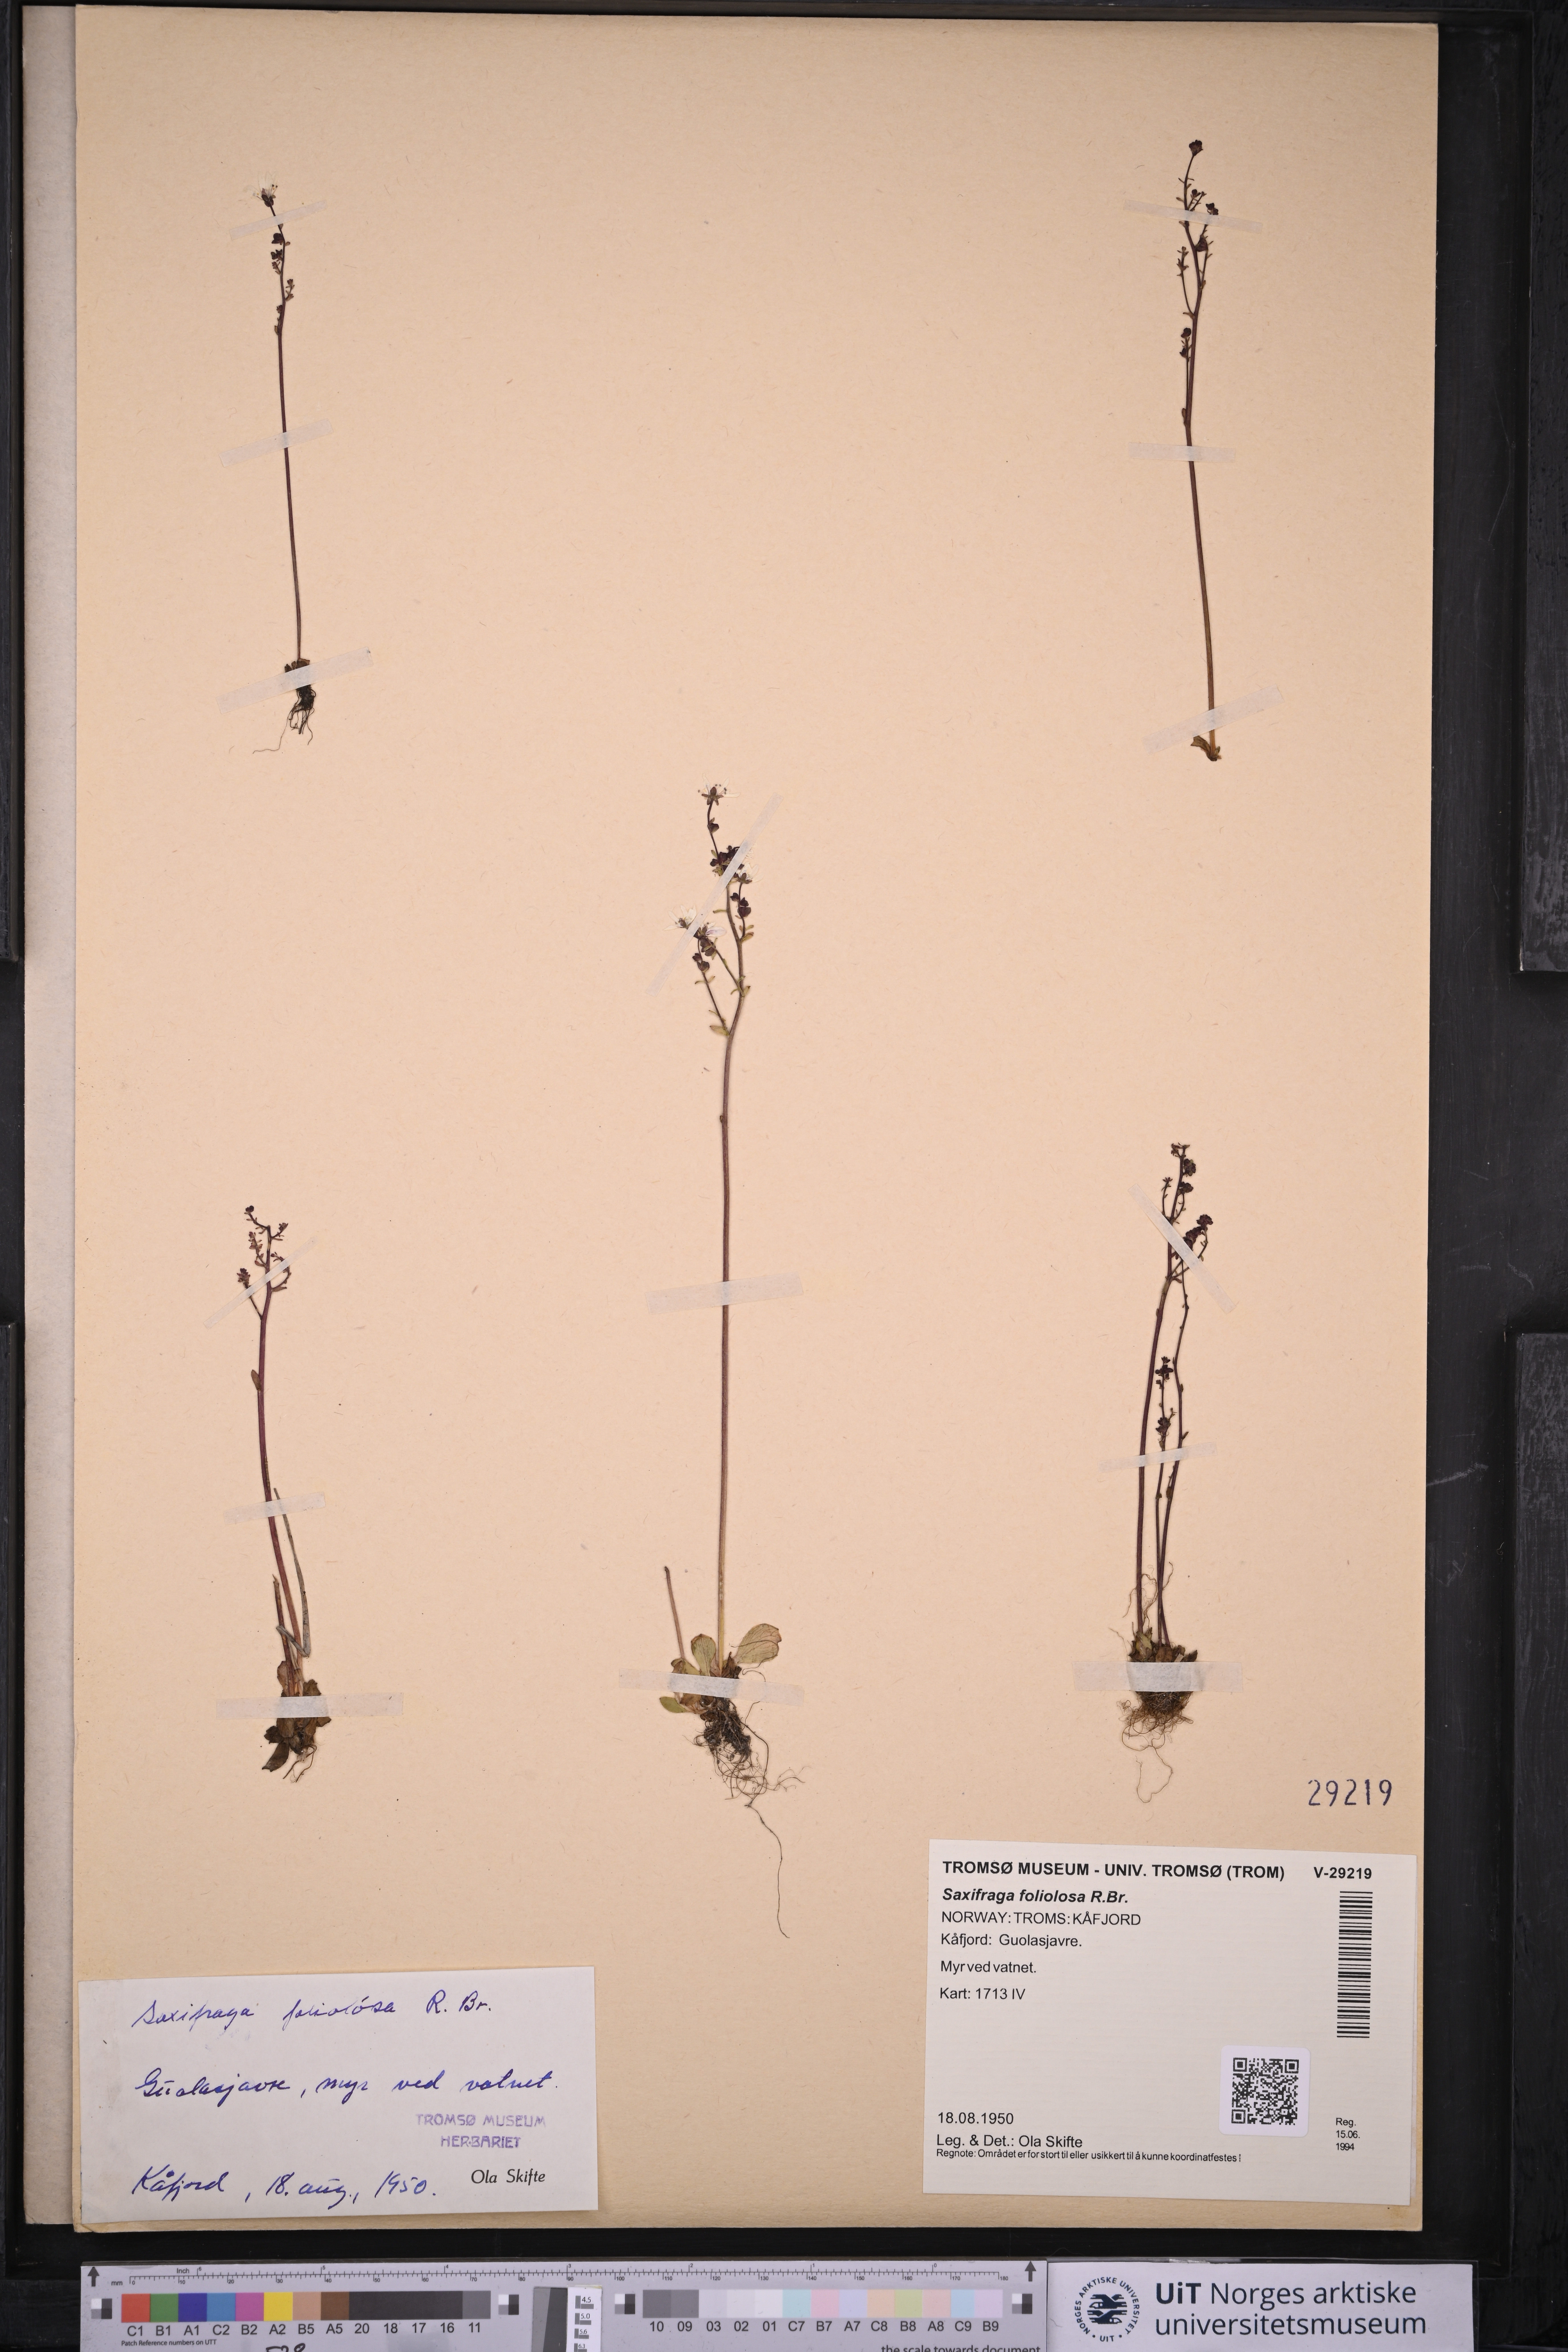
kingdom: Plantae
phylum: Tracheophyta
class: Magnoliopsida
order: Saxifragales
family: Saxifragaceae
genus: Micranthes
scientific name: Micranthes foliolosa
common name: Leafystem saxifrage
